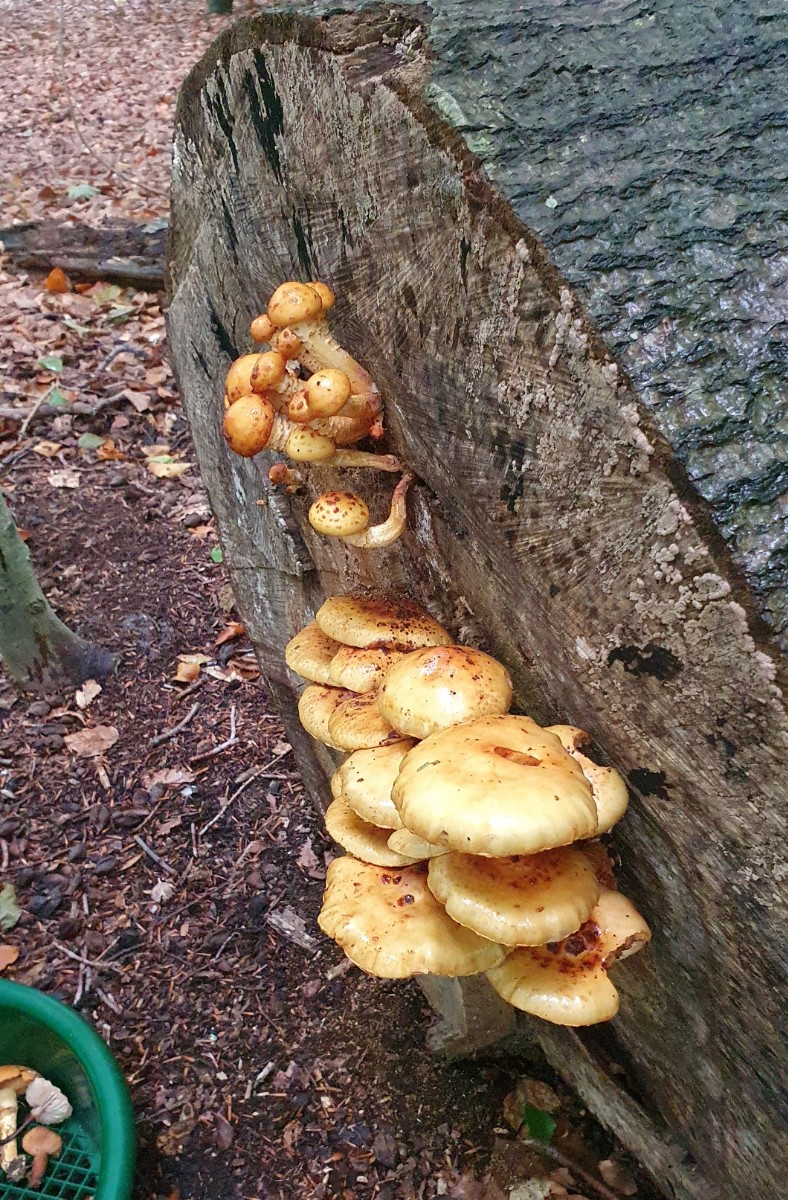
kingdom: Fungi
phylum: Basidiomycota
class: Agaricomycetes
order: Agaricales
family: Strophariaceae
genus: Pholiota
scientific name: Pholiota adiposa
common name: højtsiddende skælhat
